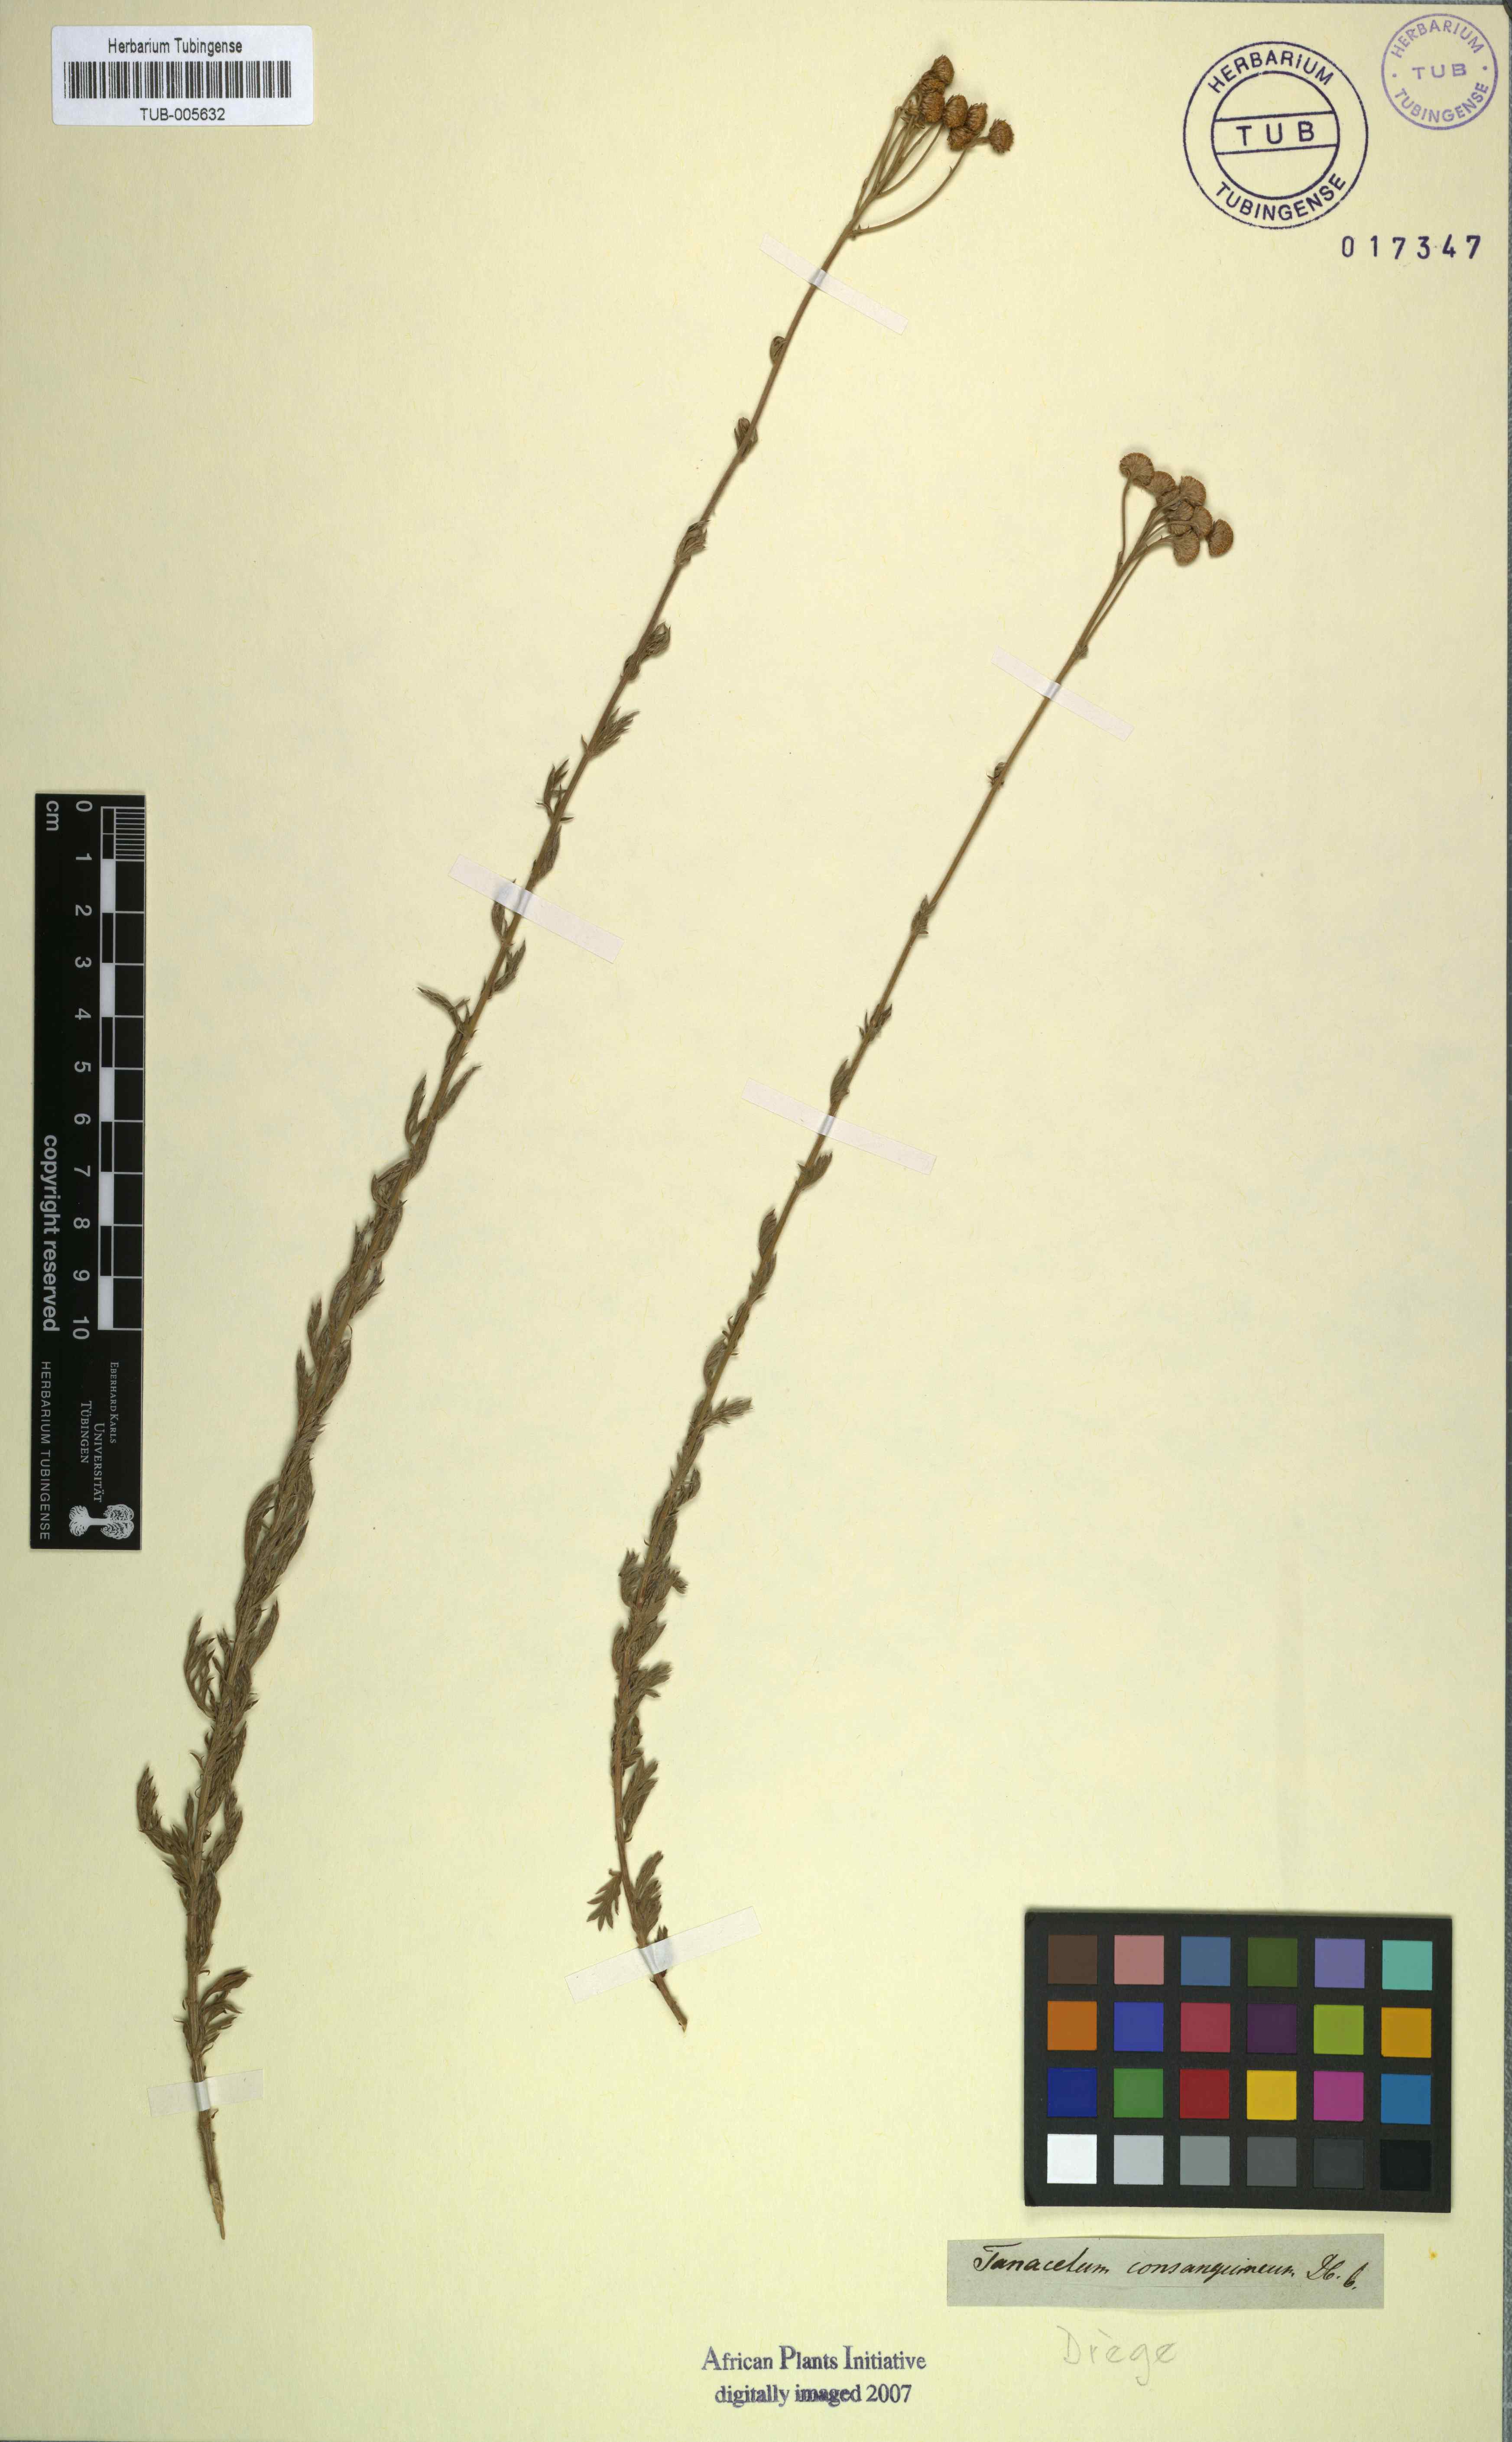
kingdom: Plantae
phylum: Tracheophyta
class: Magnoliopsida
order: Asterales
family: Asteraceae
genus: Schistostephium
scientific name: Schistostephium crataegifolium
